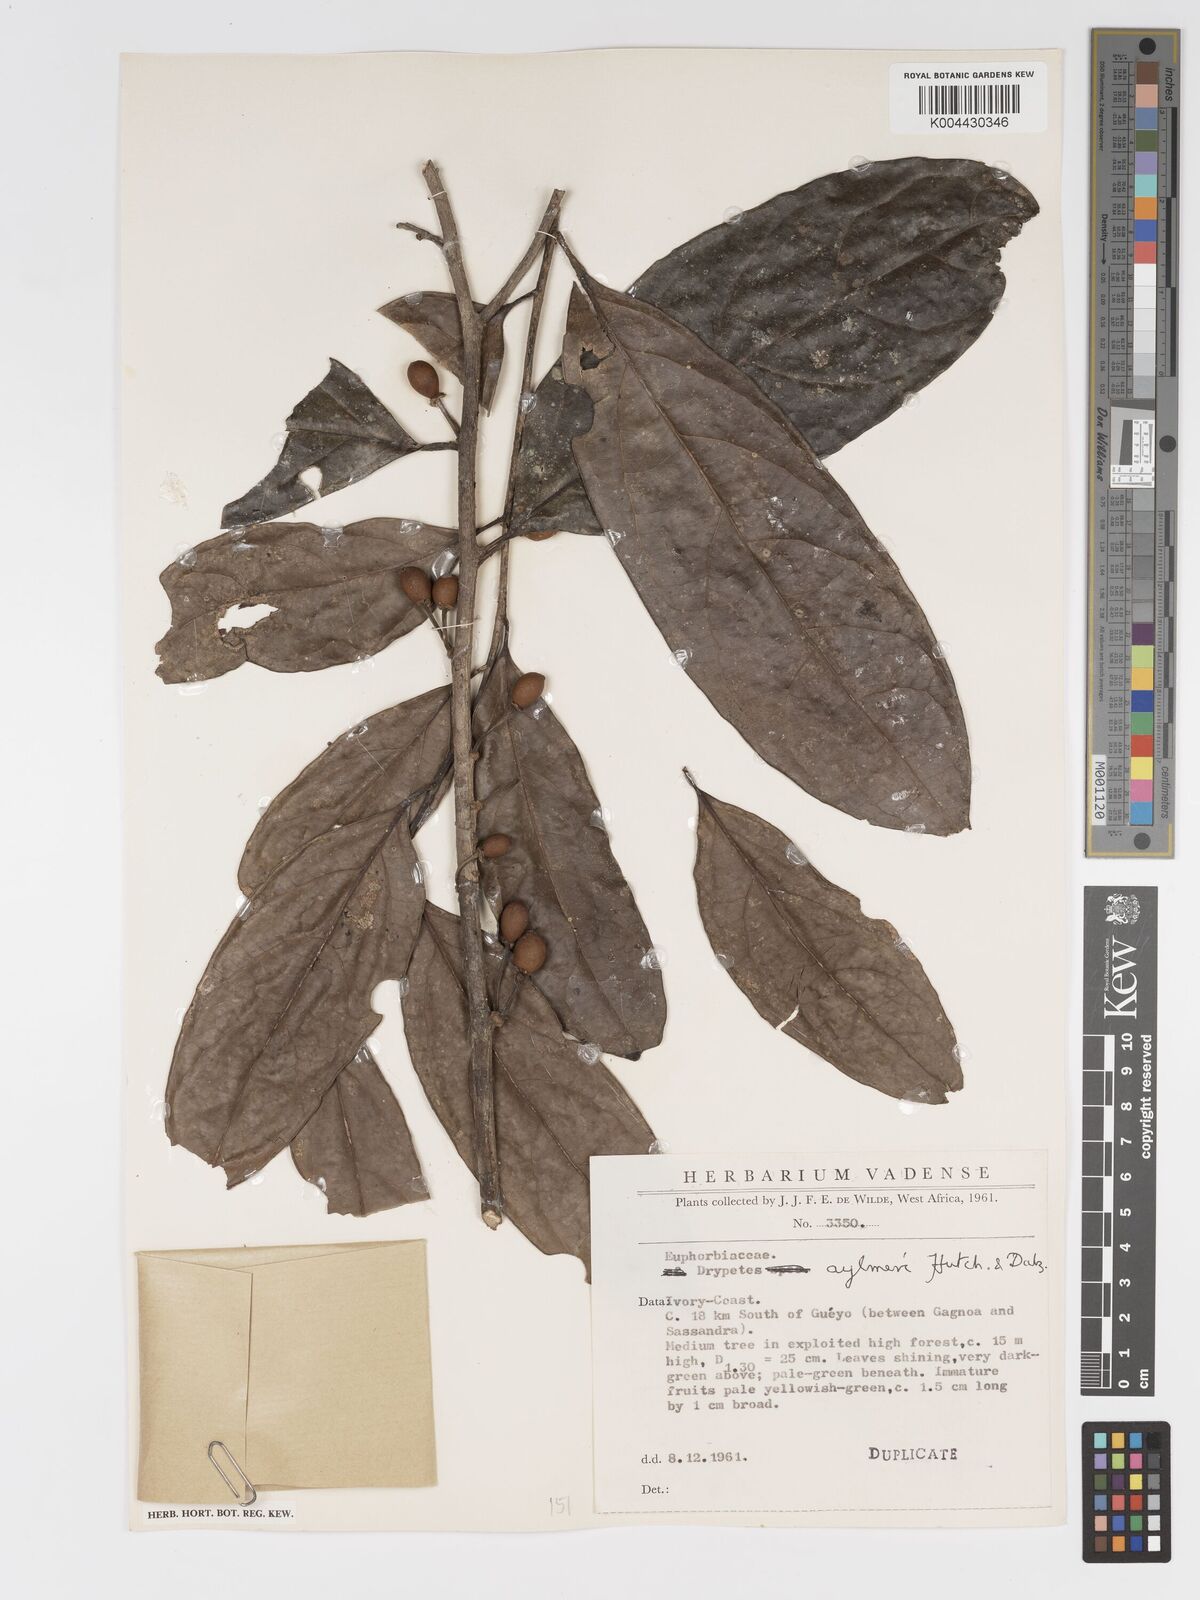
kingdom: Plantae
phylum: Tracheophyta
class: Magnoliopsida
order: Malpighiales
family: Putranjivaceae
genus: Drypetes
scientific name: Drypetes aylmeri
